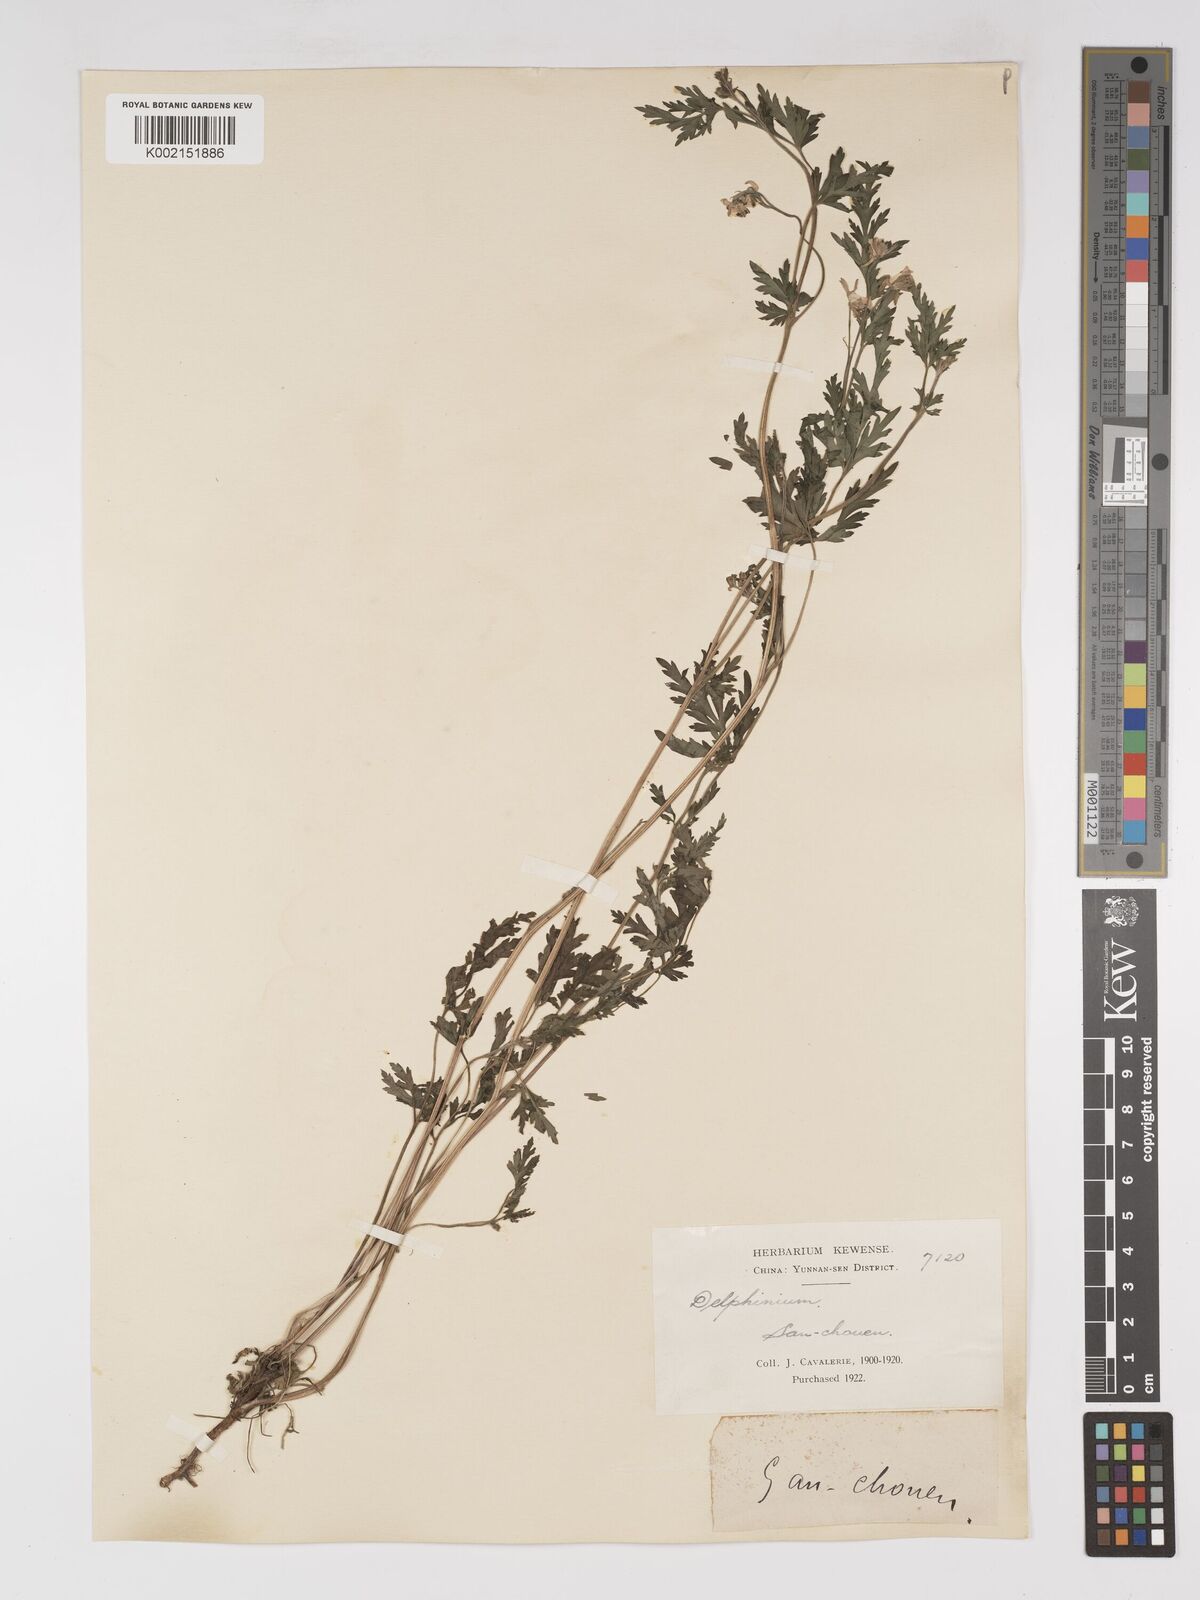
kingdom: Plantae
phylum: Tracheophyta
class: Magnoliopsida
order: Ranunculales
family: Ranunculaceae
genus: Delphinium
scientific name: Delphinium anthriscifolium
